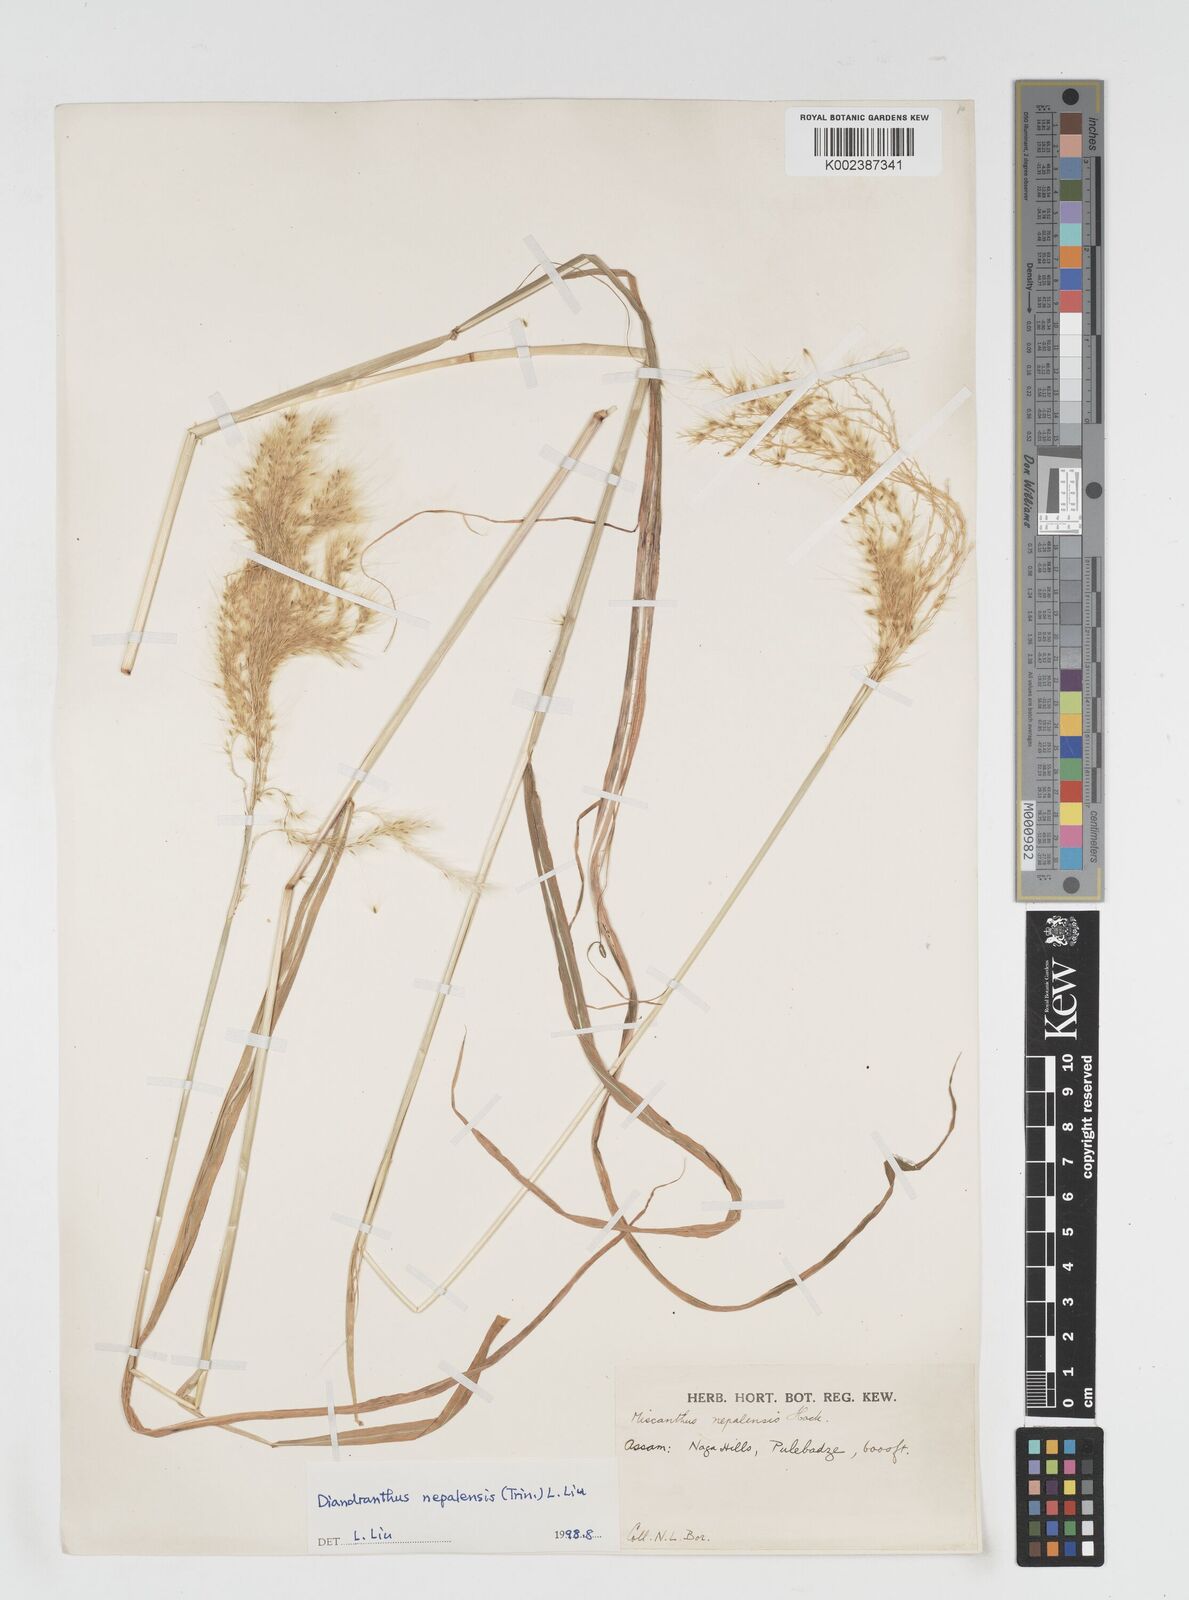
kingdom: Plantae
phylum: Tracheophyta
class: Liliopsida
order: Poales
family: Poaceae
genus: Miscanthus
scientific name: Miscanthus nepalensis
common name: Nepal silver grass
